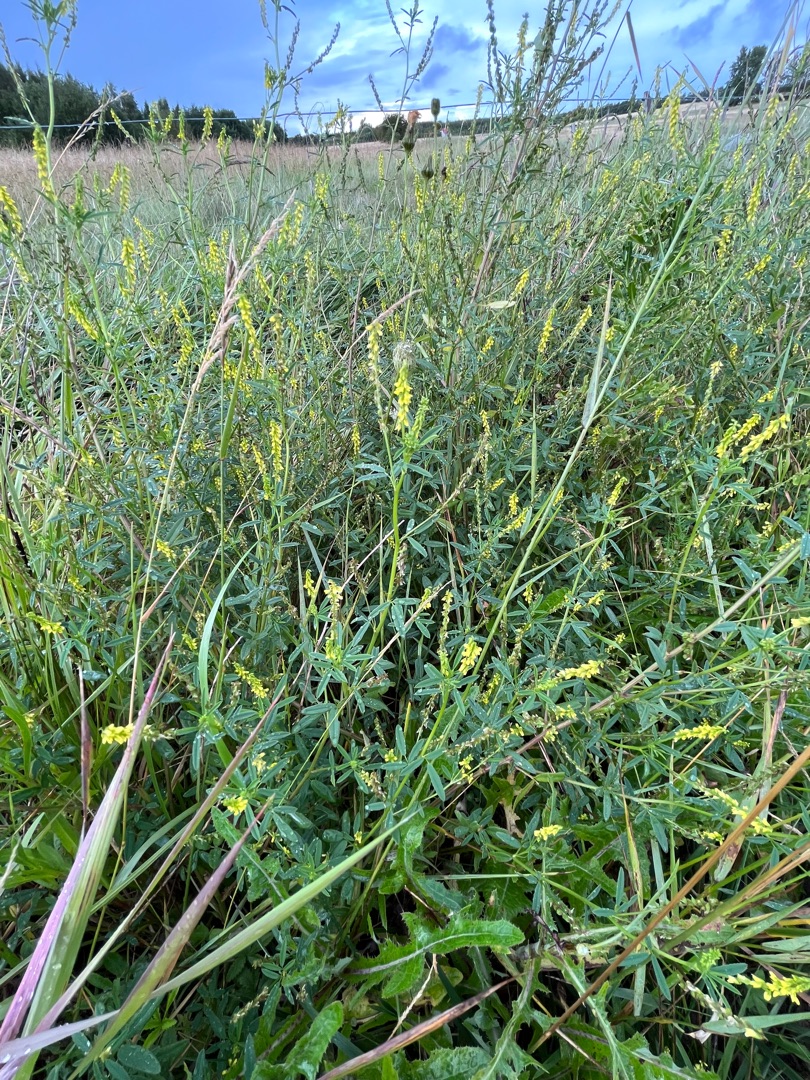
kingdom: Plantae
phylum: Tracheophyta
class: Magnoliopsida
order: Fabales
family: Fabaceae
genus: Melilotus
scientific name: Melilotus dentatus
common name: Strand-stenkløver
